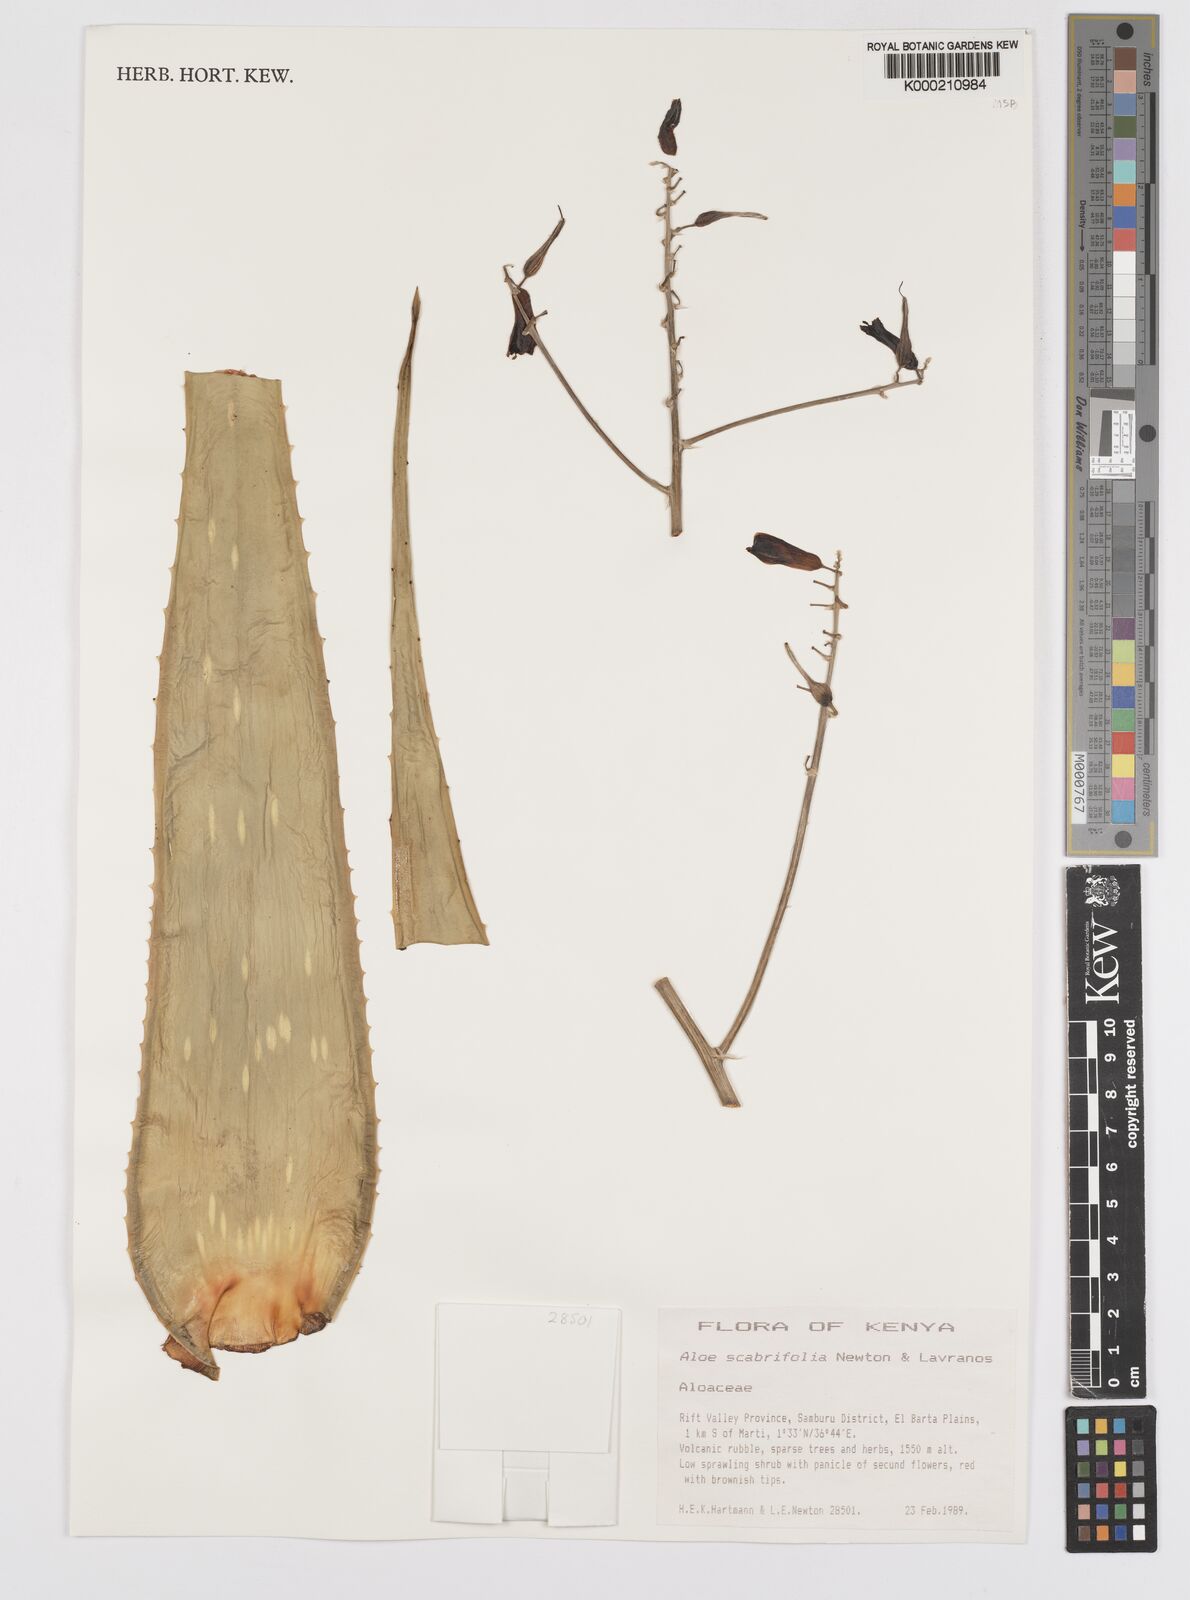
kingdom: Plantae
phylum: Tracheophyta
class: Liliopsida
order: Asparagales
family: Asphodelaceae
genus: Aloe
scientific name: Aloe scabrifolia
